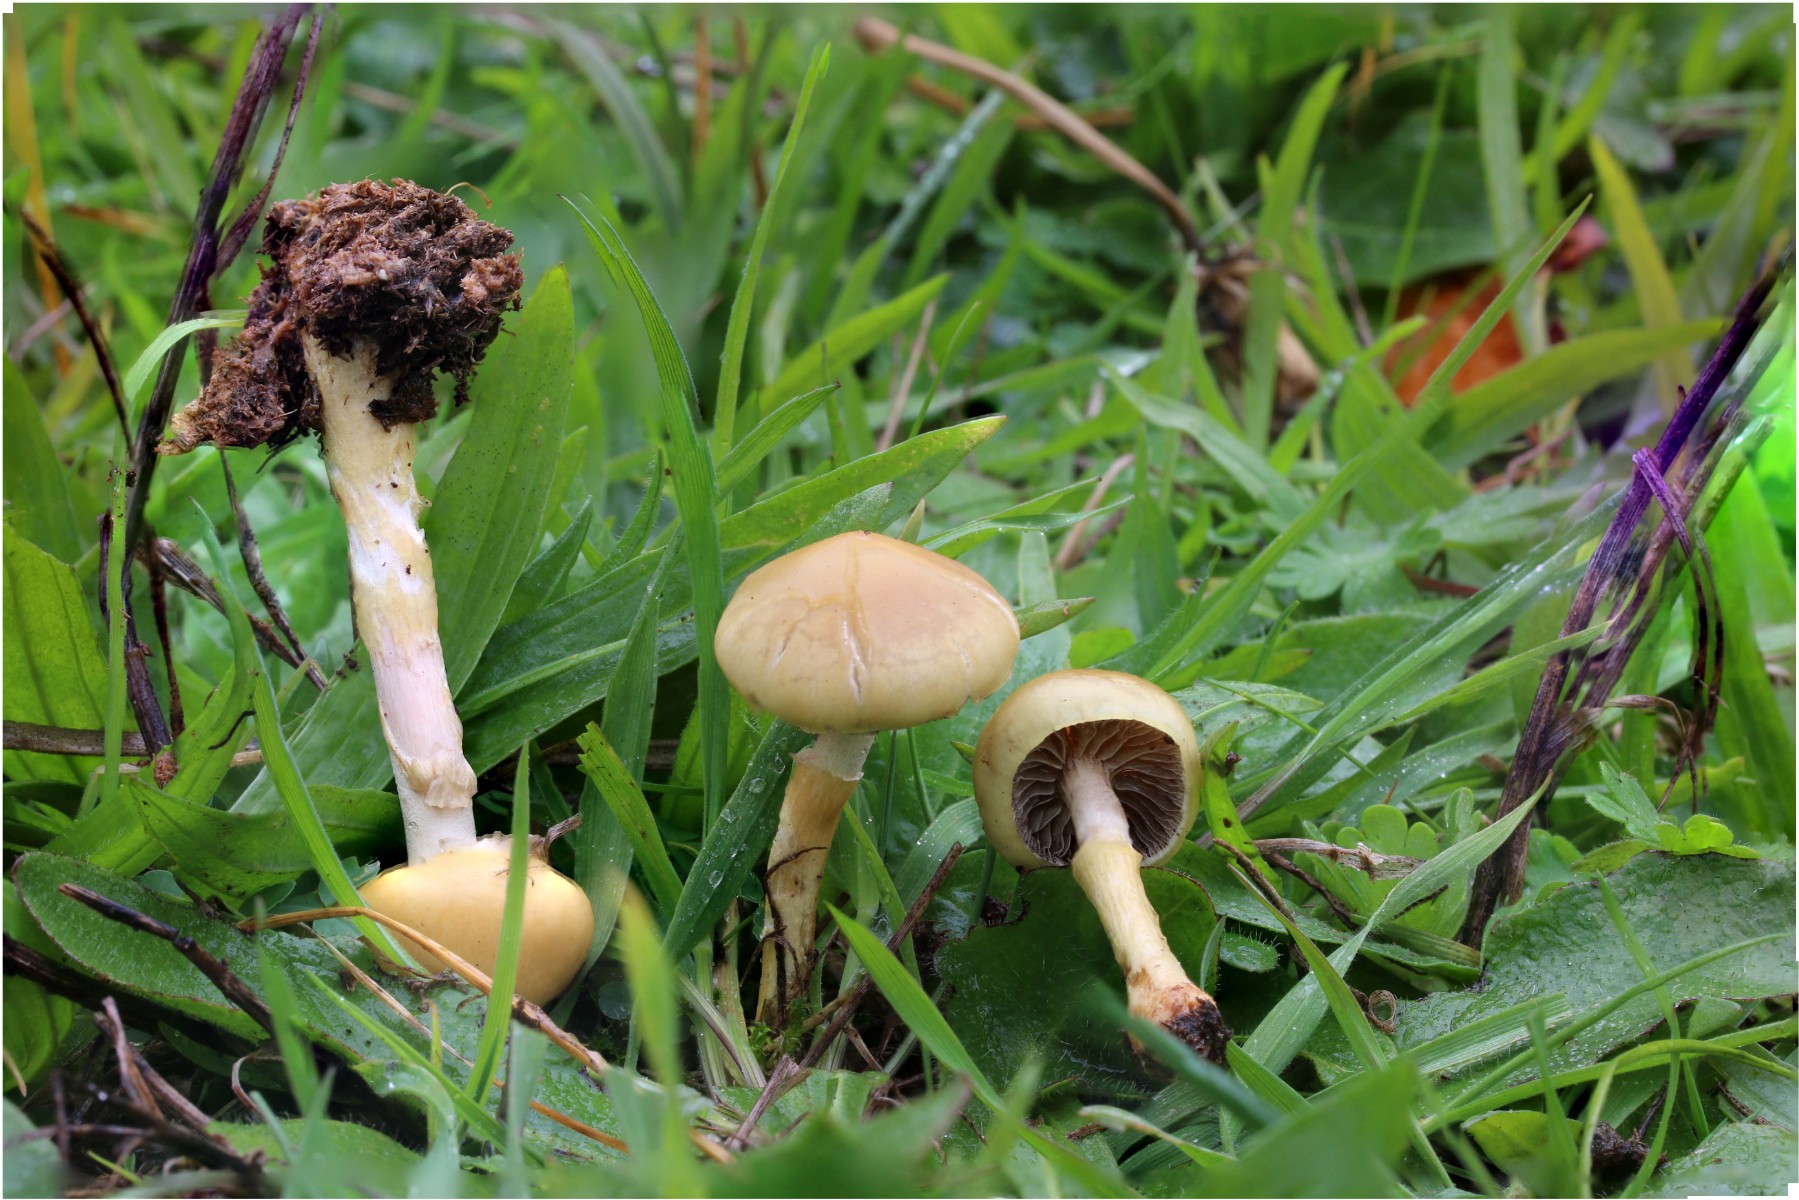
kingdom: Fungi
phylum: Basidiomycota
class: Agaricomycetes
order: Agaricales
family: Strophariaceae
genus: Protostropharia
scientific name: Protostropharia
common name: bredblad
